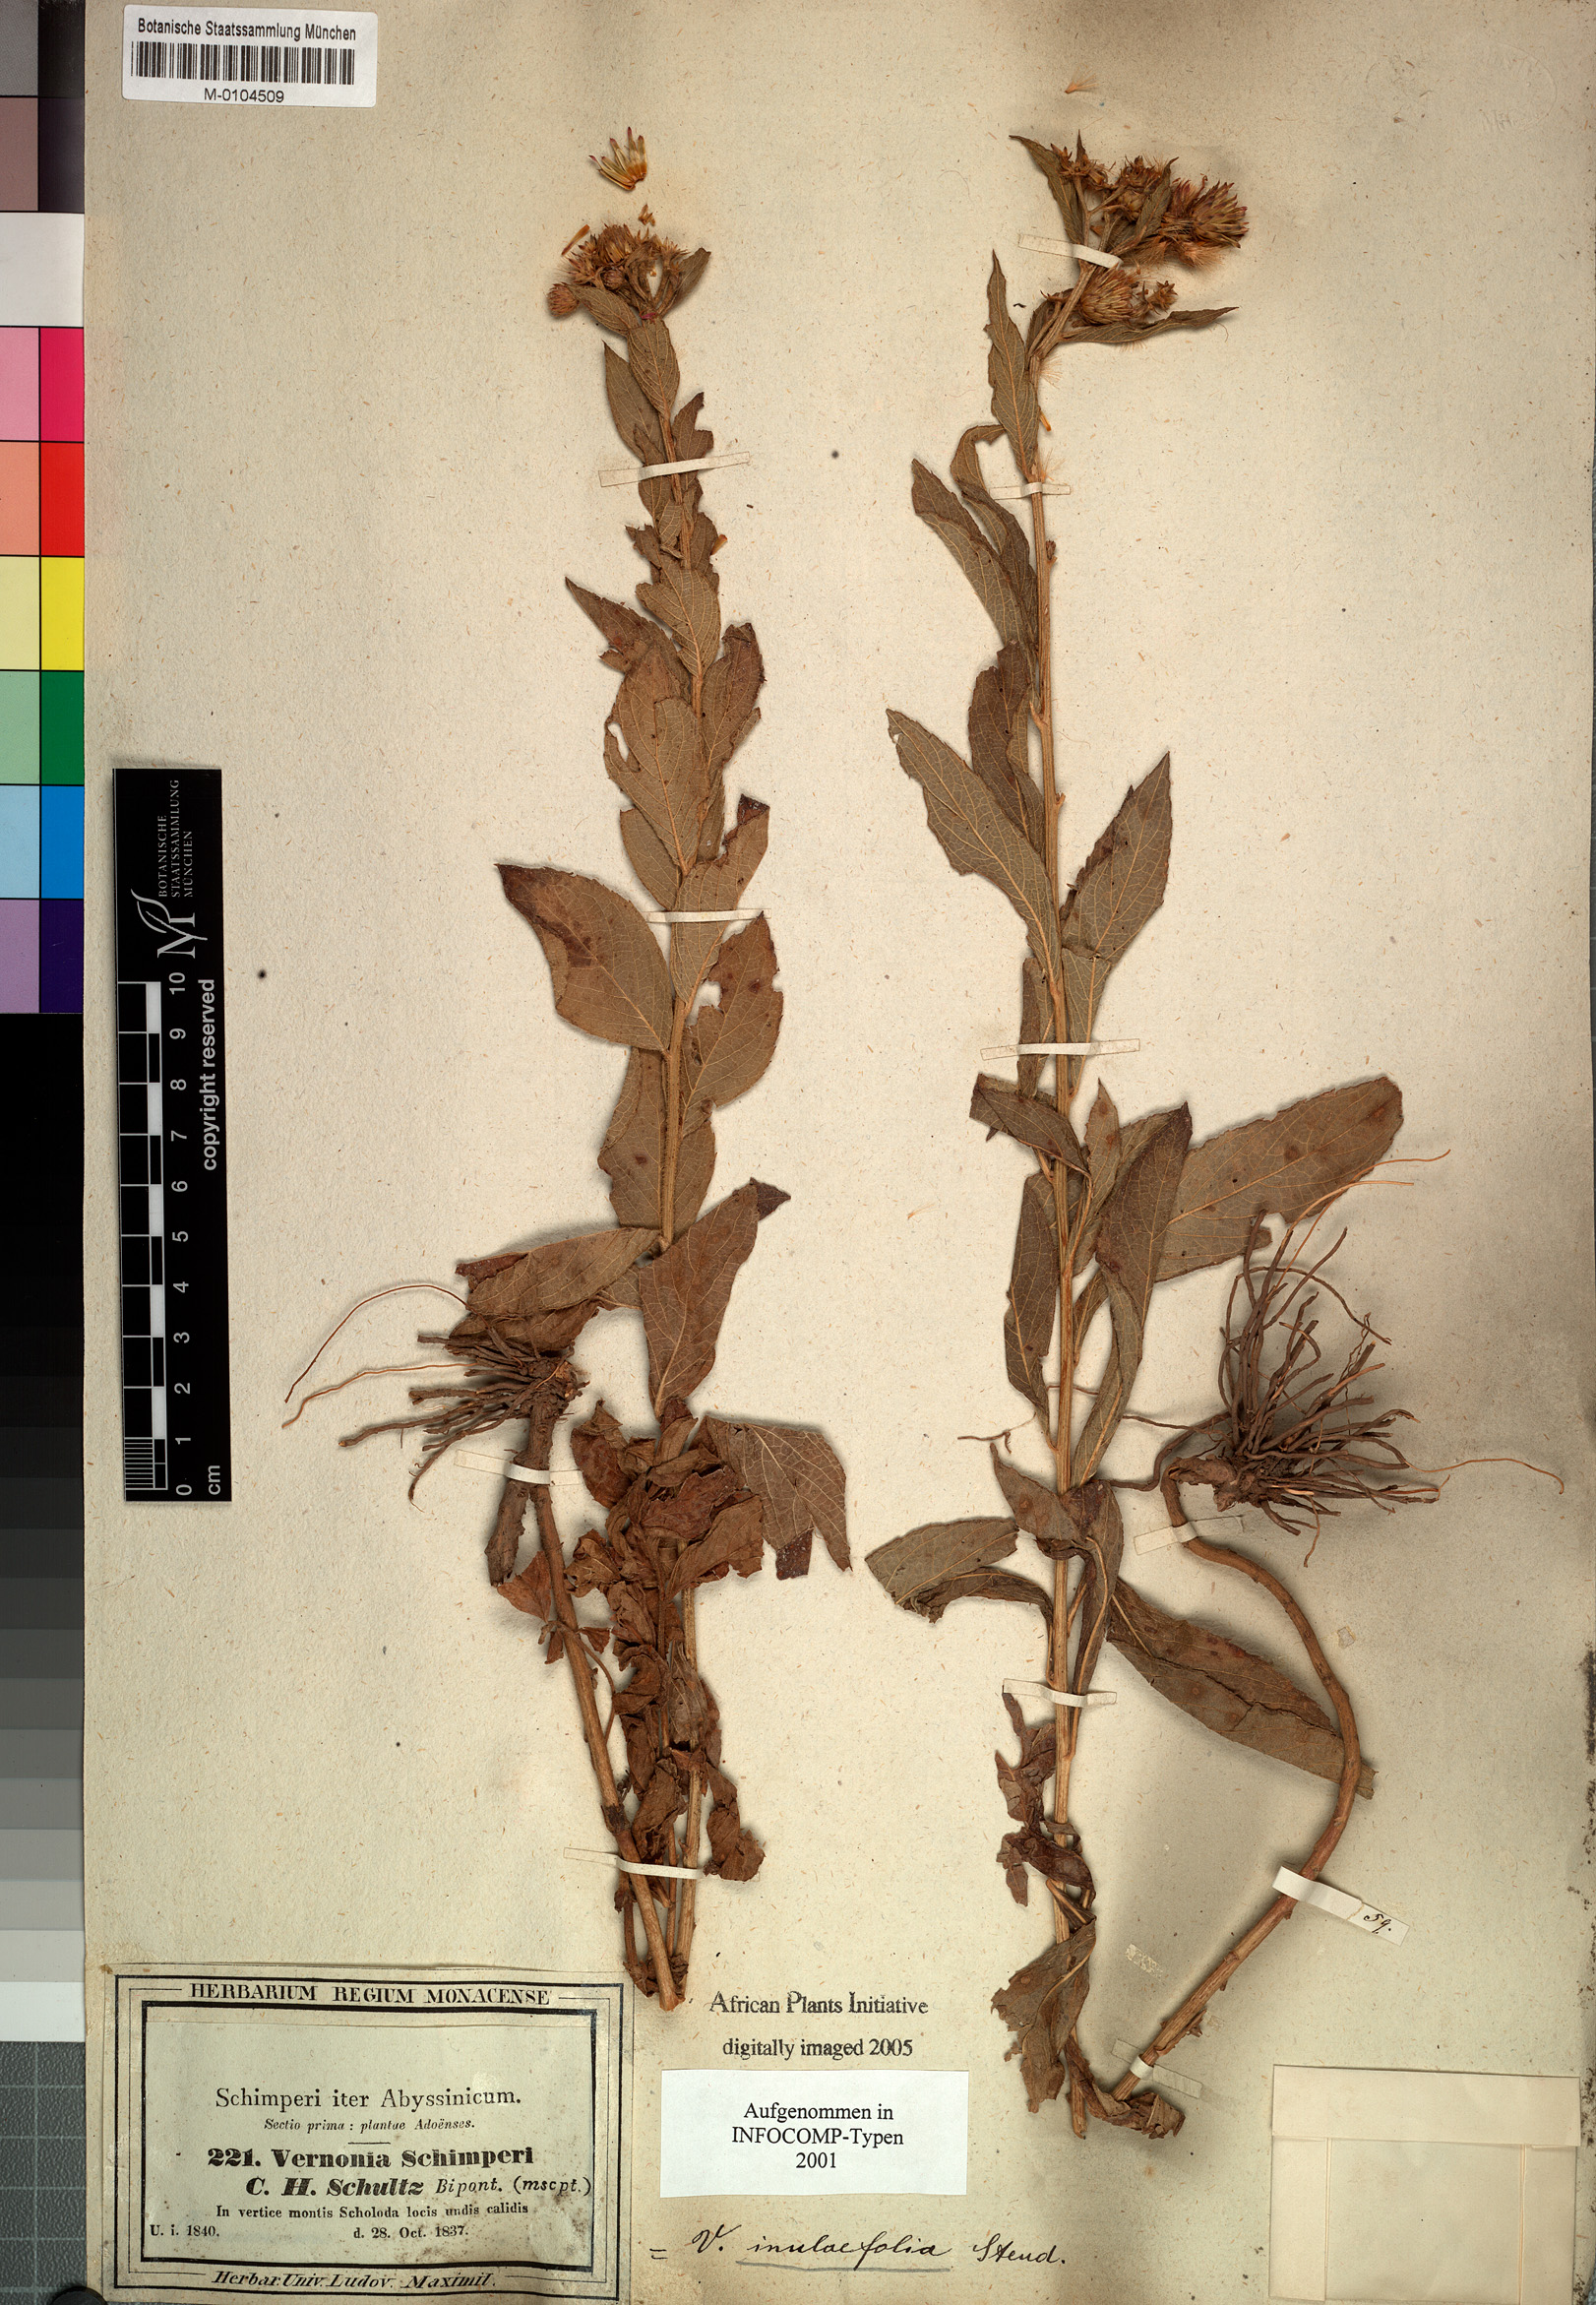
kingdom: Plantae
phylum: Tracheophyta
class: Magnoliopsida
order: Asterales
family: Asteraceae
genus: Nothovernonia
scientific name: Nothovernonia purpurea
